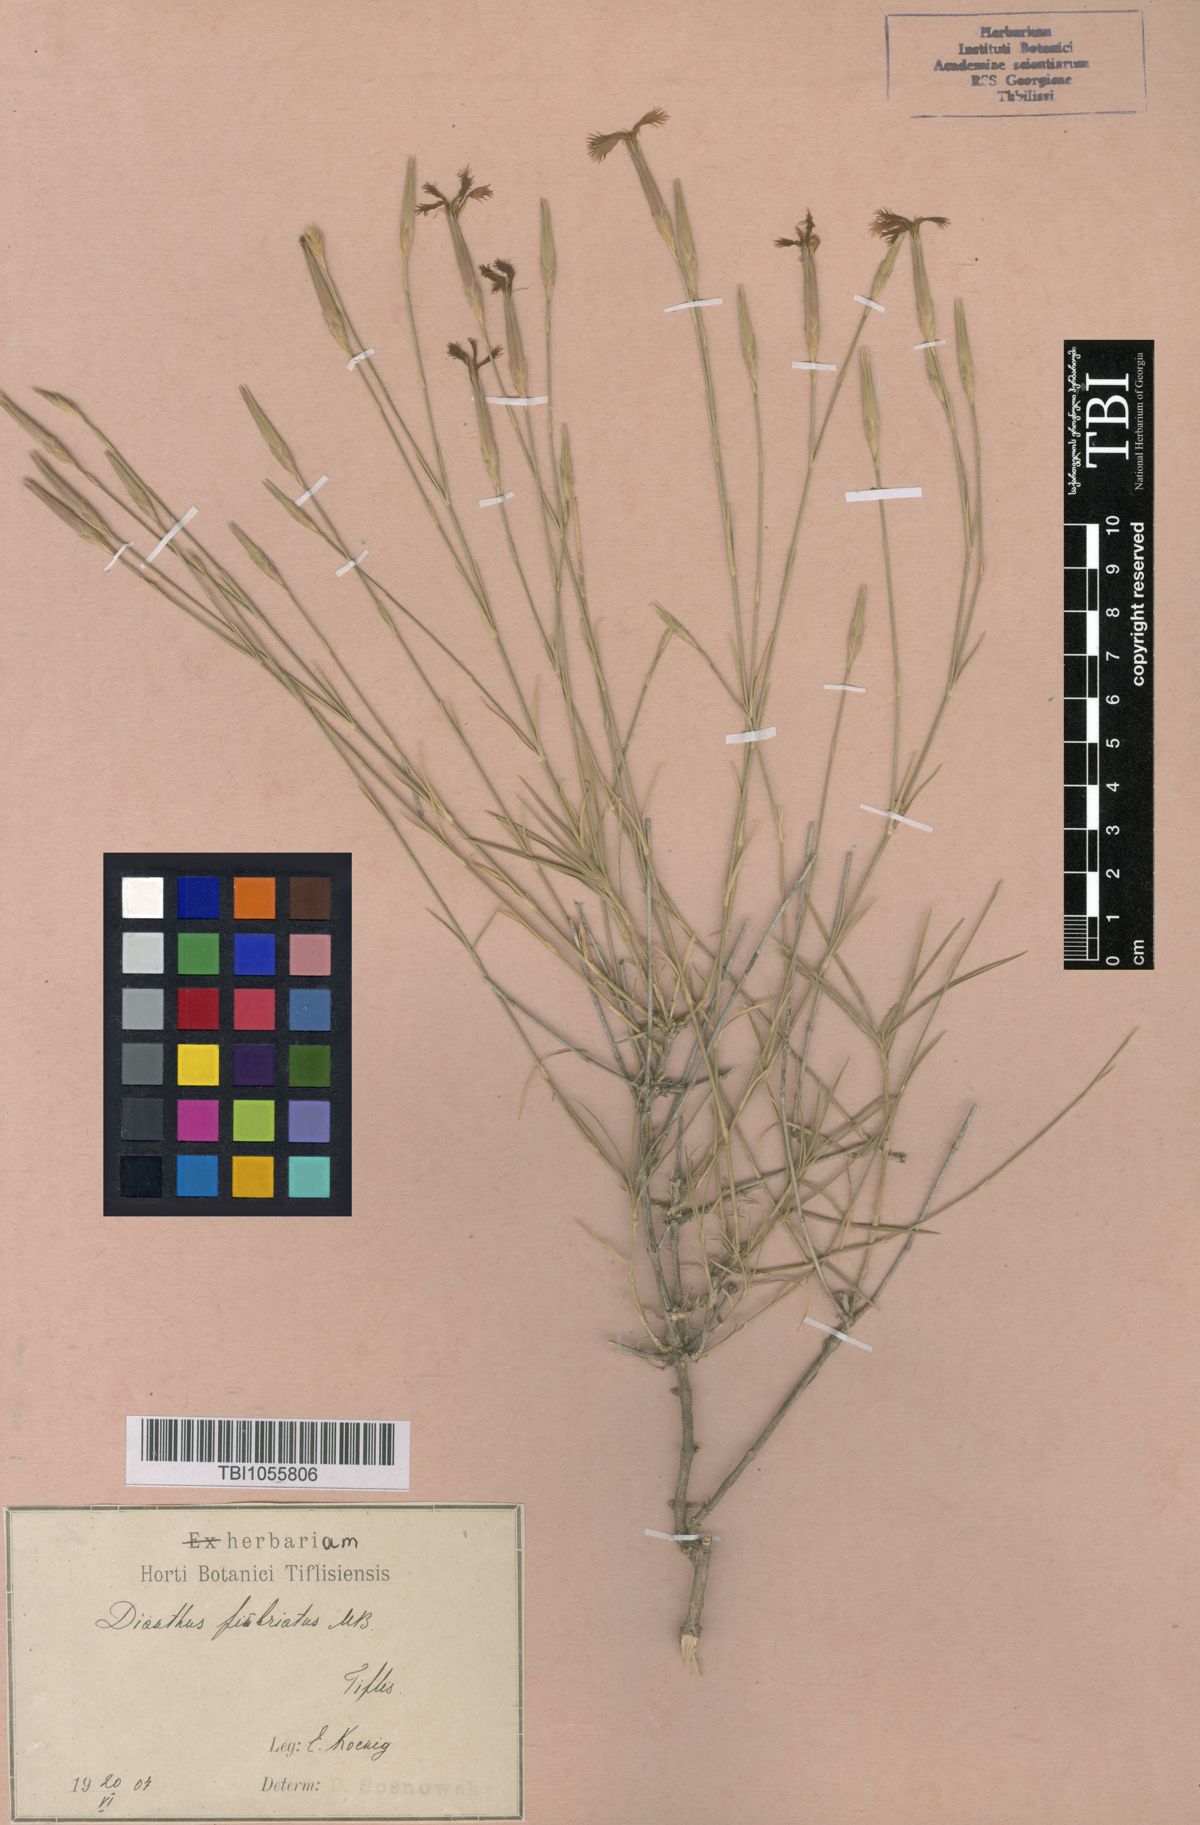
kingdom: Plantae
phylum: Tracheophyta
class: Magnoliopsida
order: Caryophyllales
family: Caryophyllaceae
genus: Dianthus
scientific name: Dianthus orientalis
